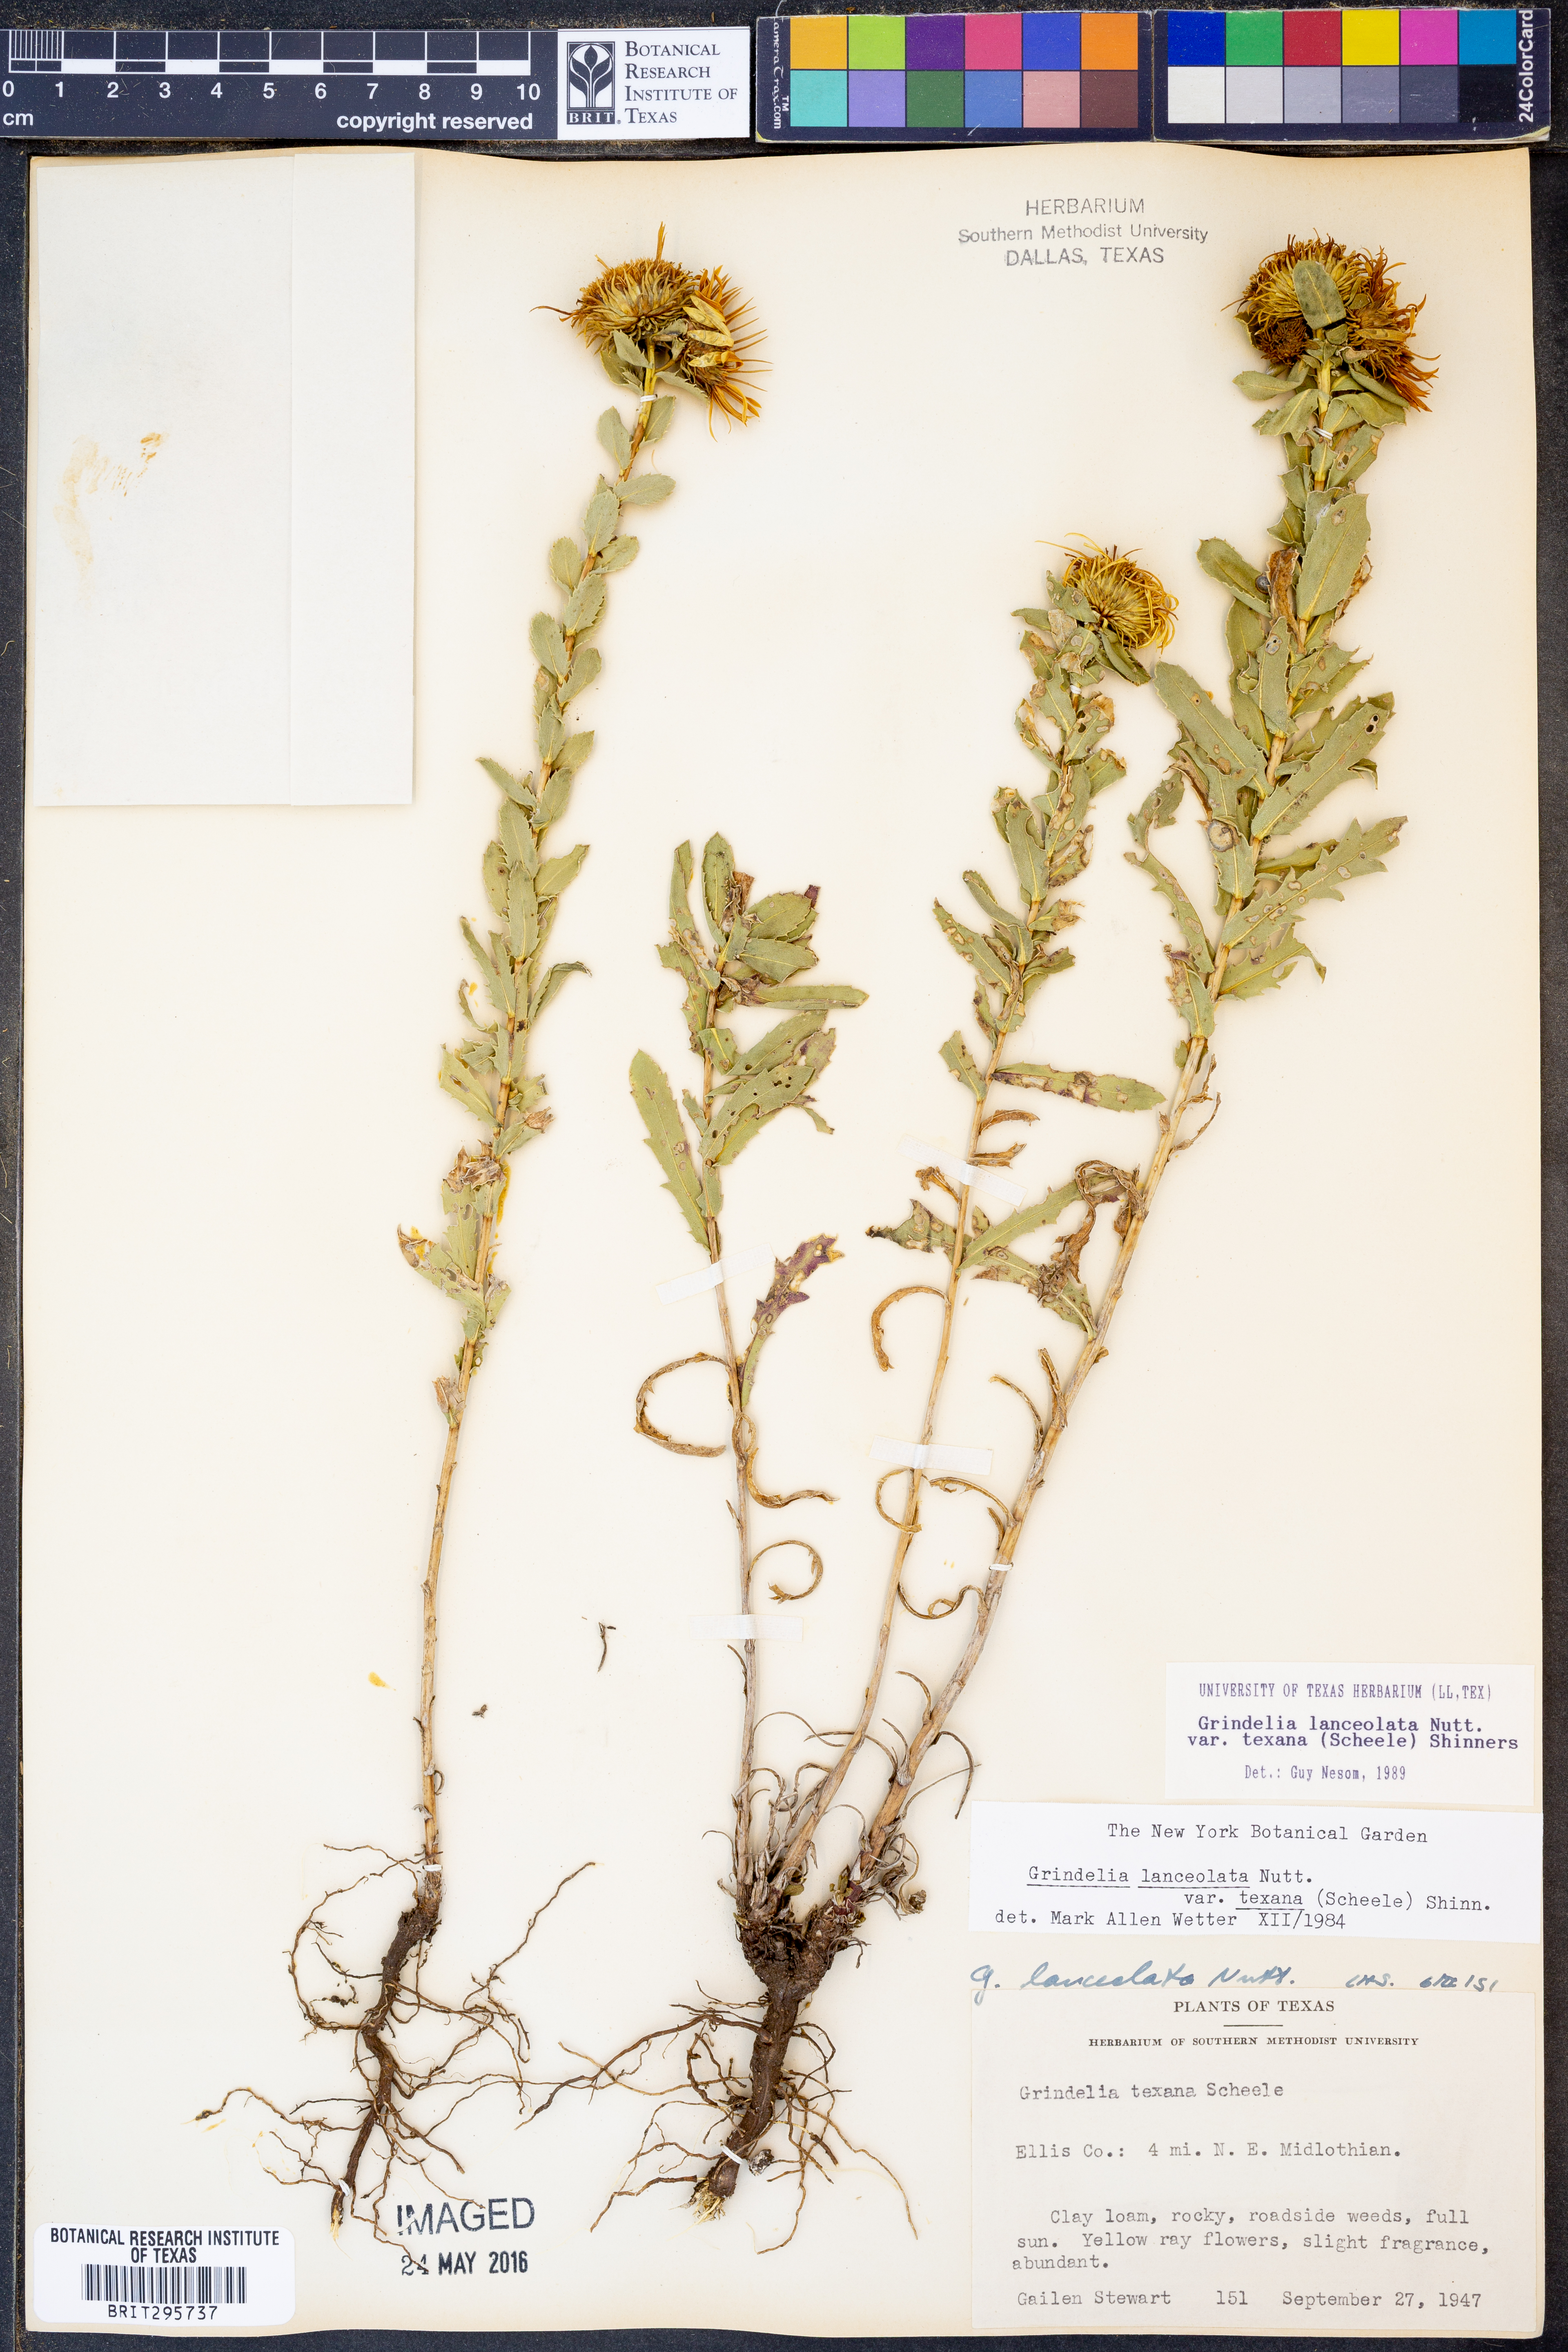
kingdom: Plantae
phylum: Tracheophyta
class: Magnoliopsida
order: Asterales
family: Asteraceae
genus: Grindelia
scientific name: Grindelia texana
